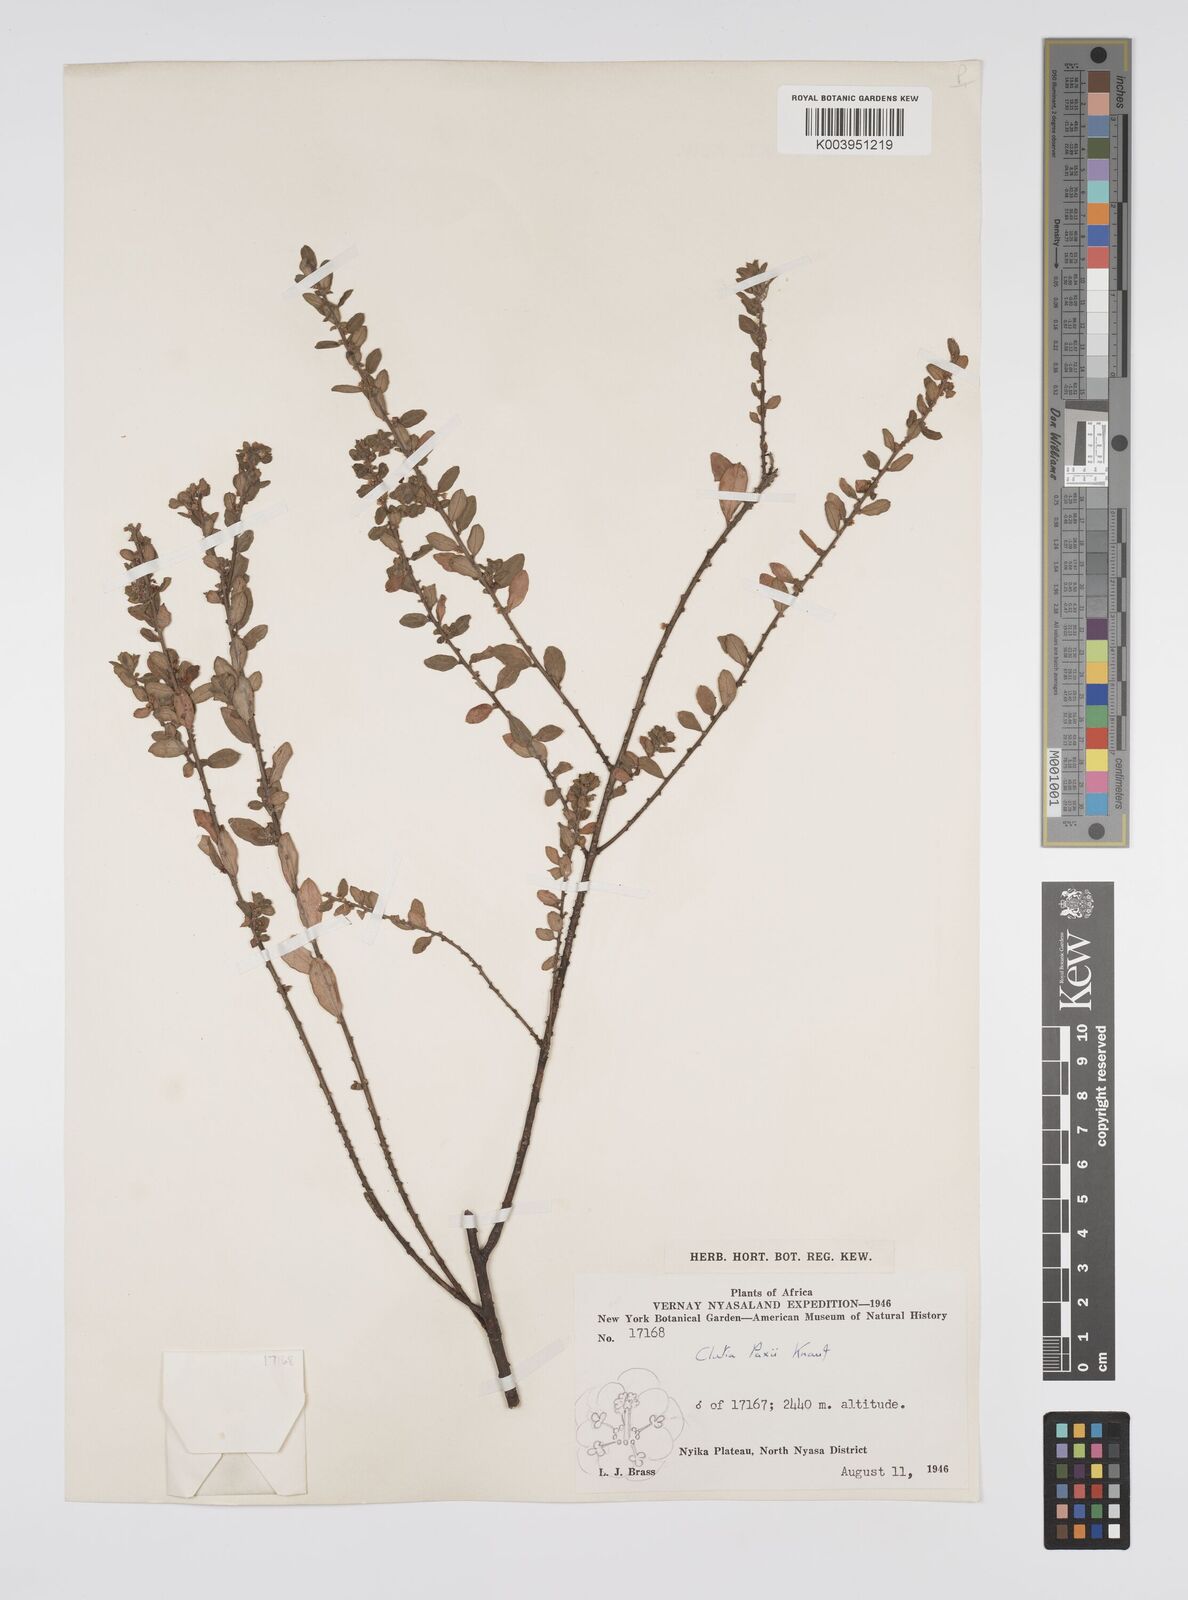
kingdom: Plantae
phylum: Tracheophyta
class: Magnoliopsida
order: Malpighiales
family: Peraceae
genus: Clutia
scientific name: Clutia paxii
